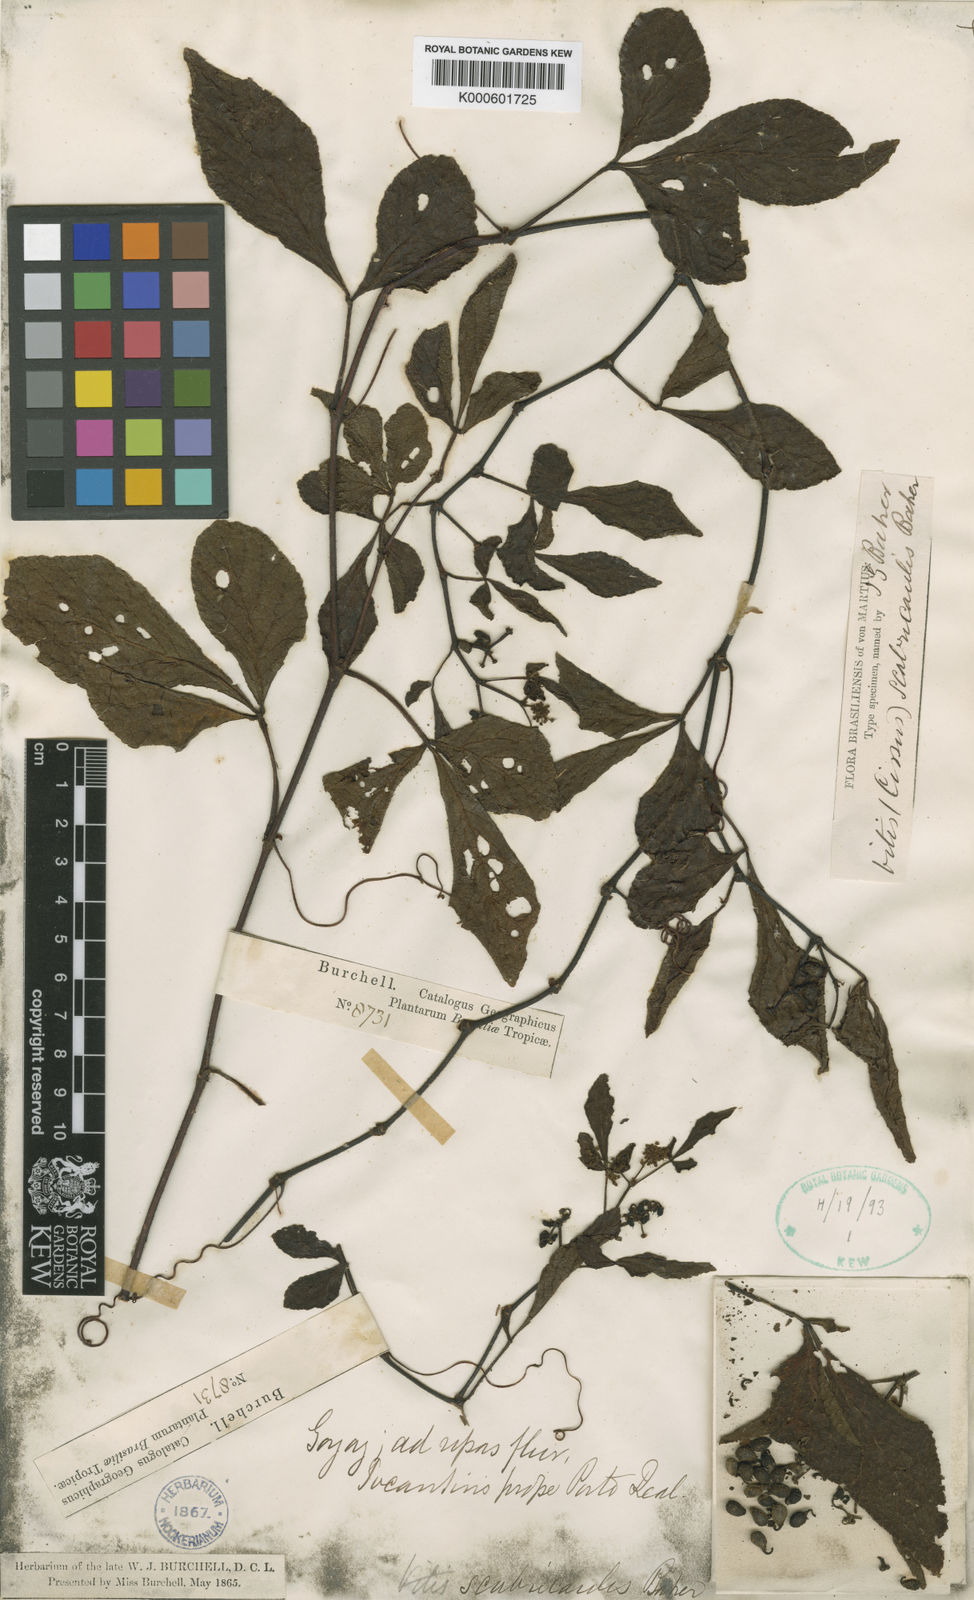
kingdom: Plantae
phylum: Tracheophyta
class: Magnoliopsida
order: Vitales
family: Vitaceae
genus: Cissus
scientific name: Cissus subrhomboidea
